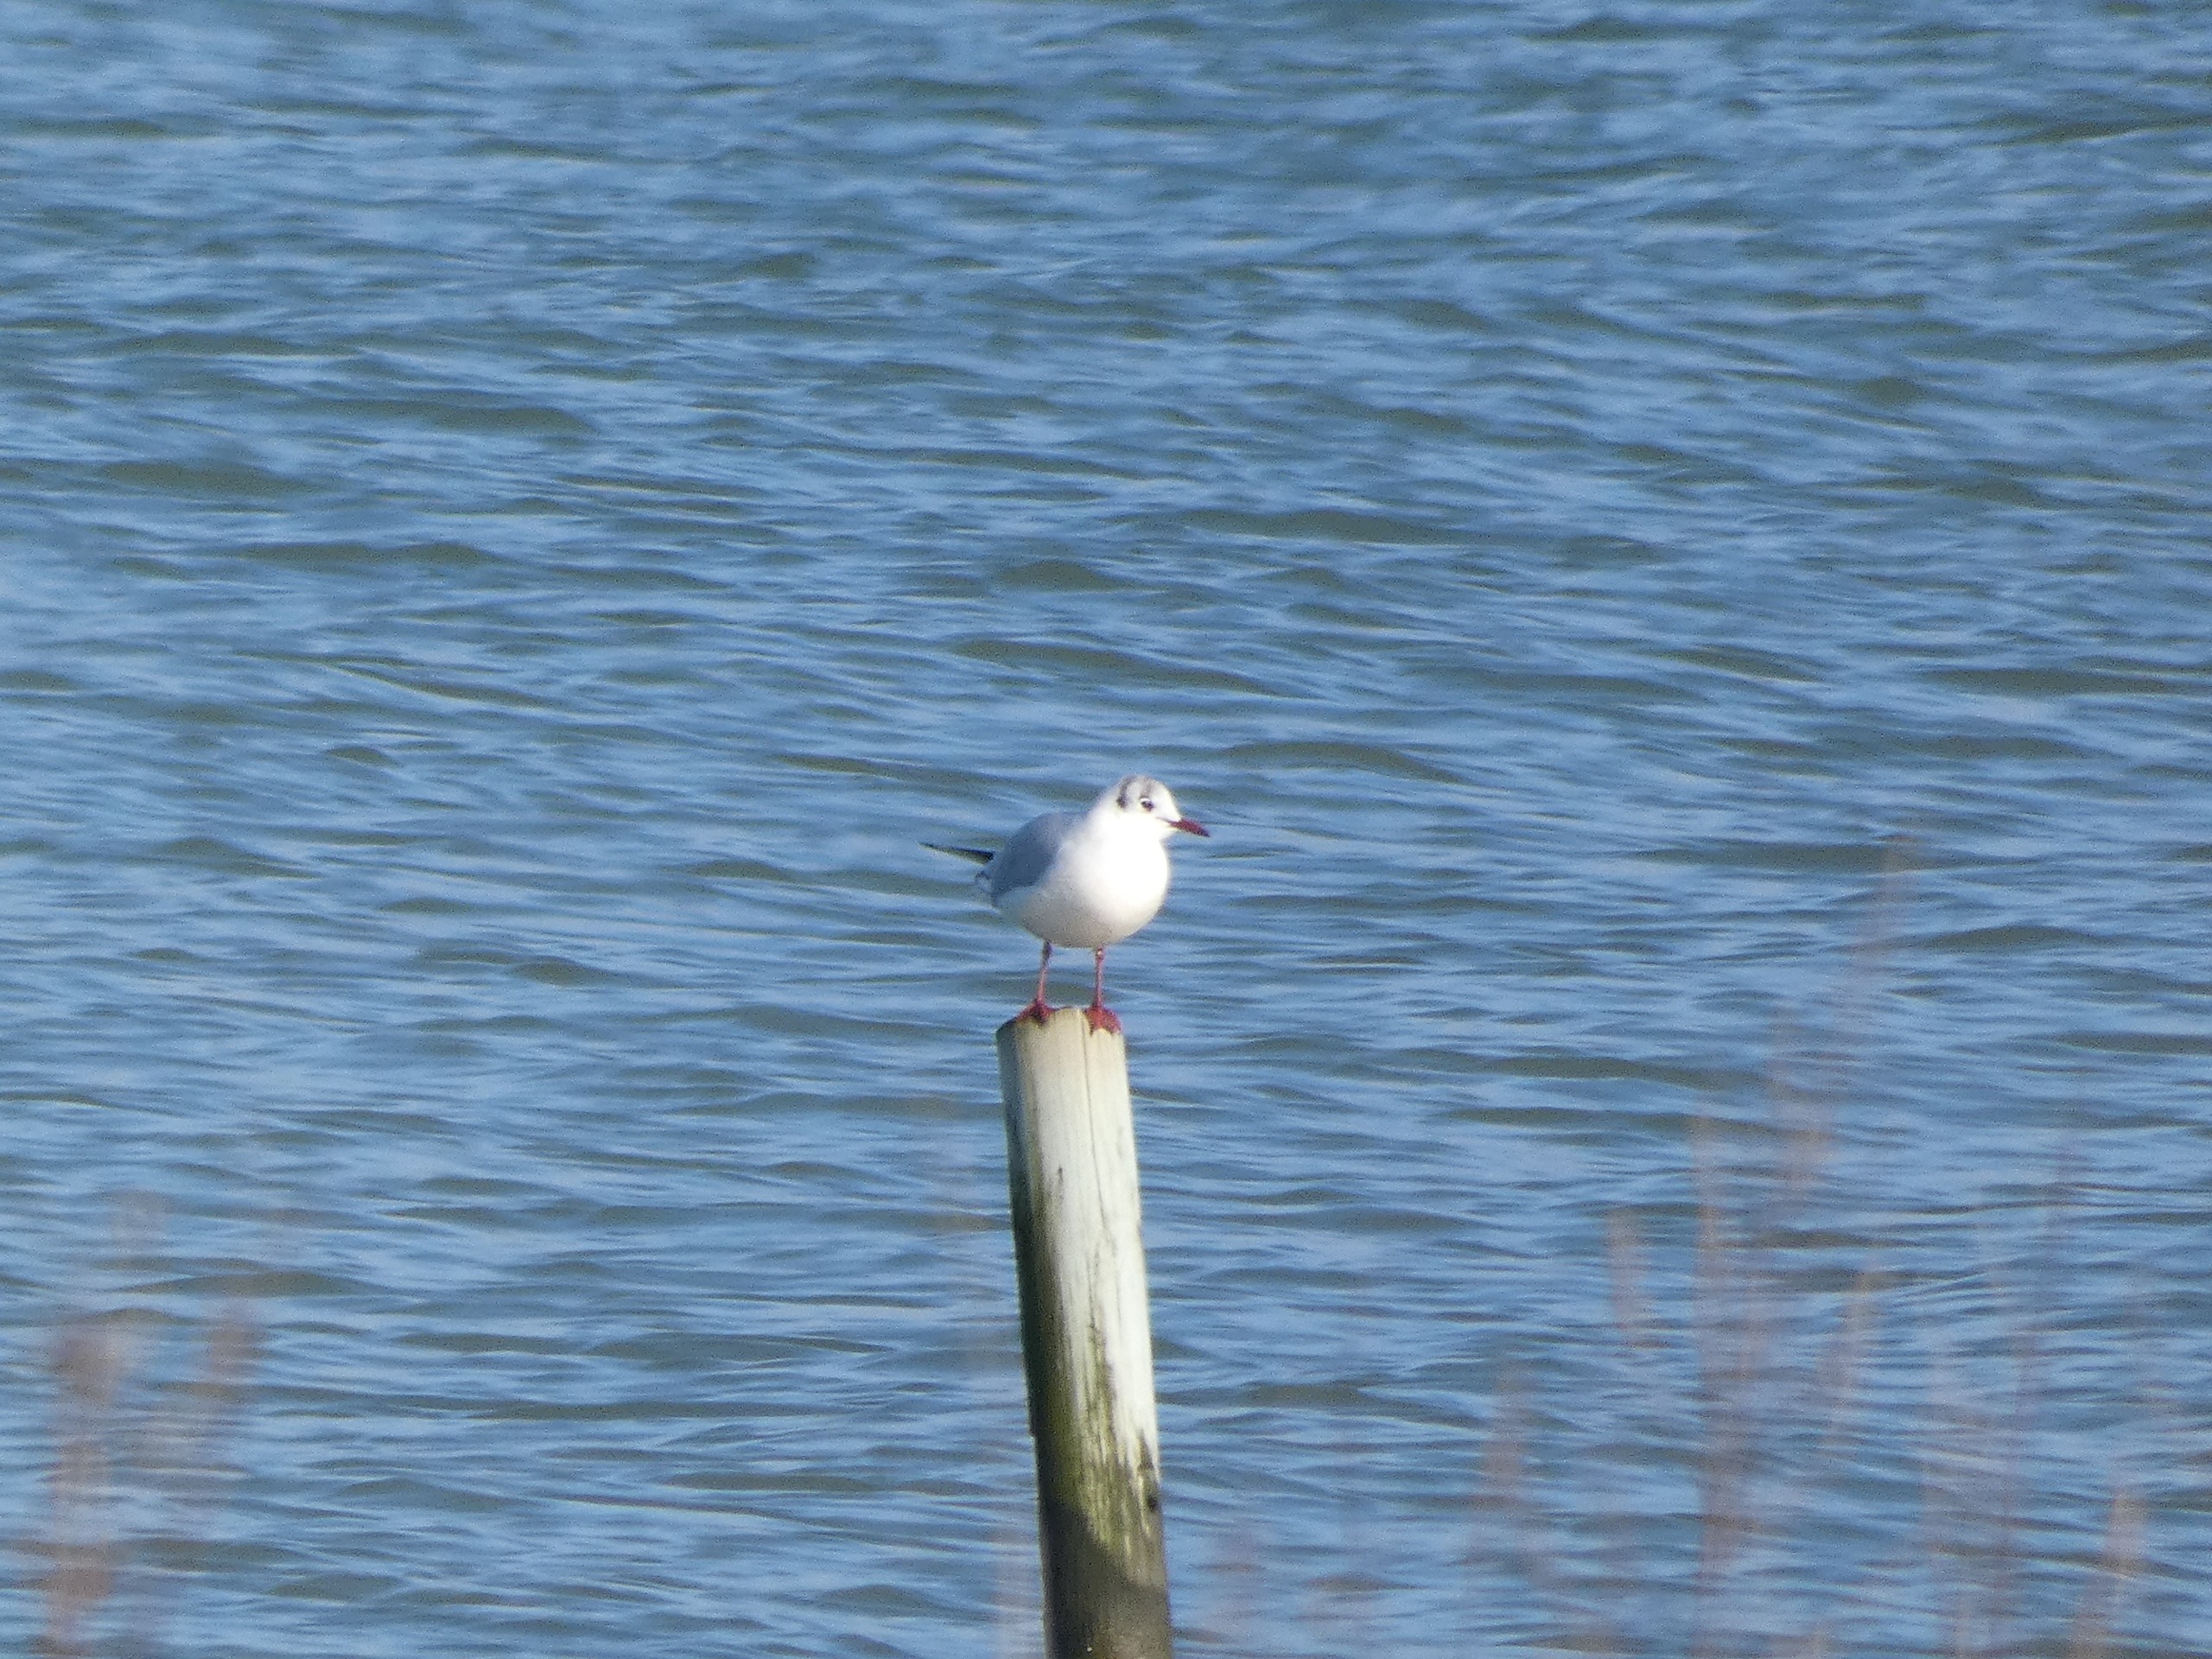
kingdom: Animalia
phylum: Chordata
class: Aves
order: Charadriiformes
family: Laridae
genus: Chroicocephalus
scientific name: Chroicocephalus ridibundus
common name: Hættemåge
